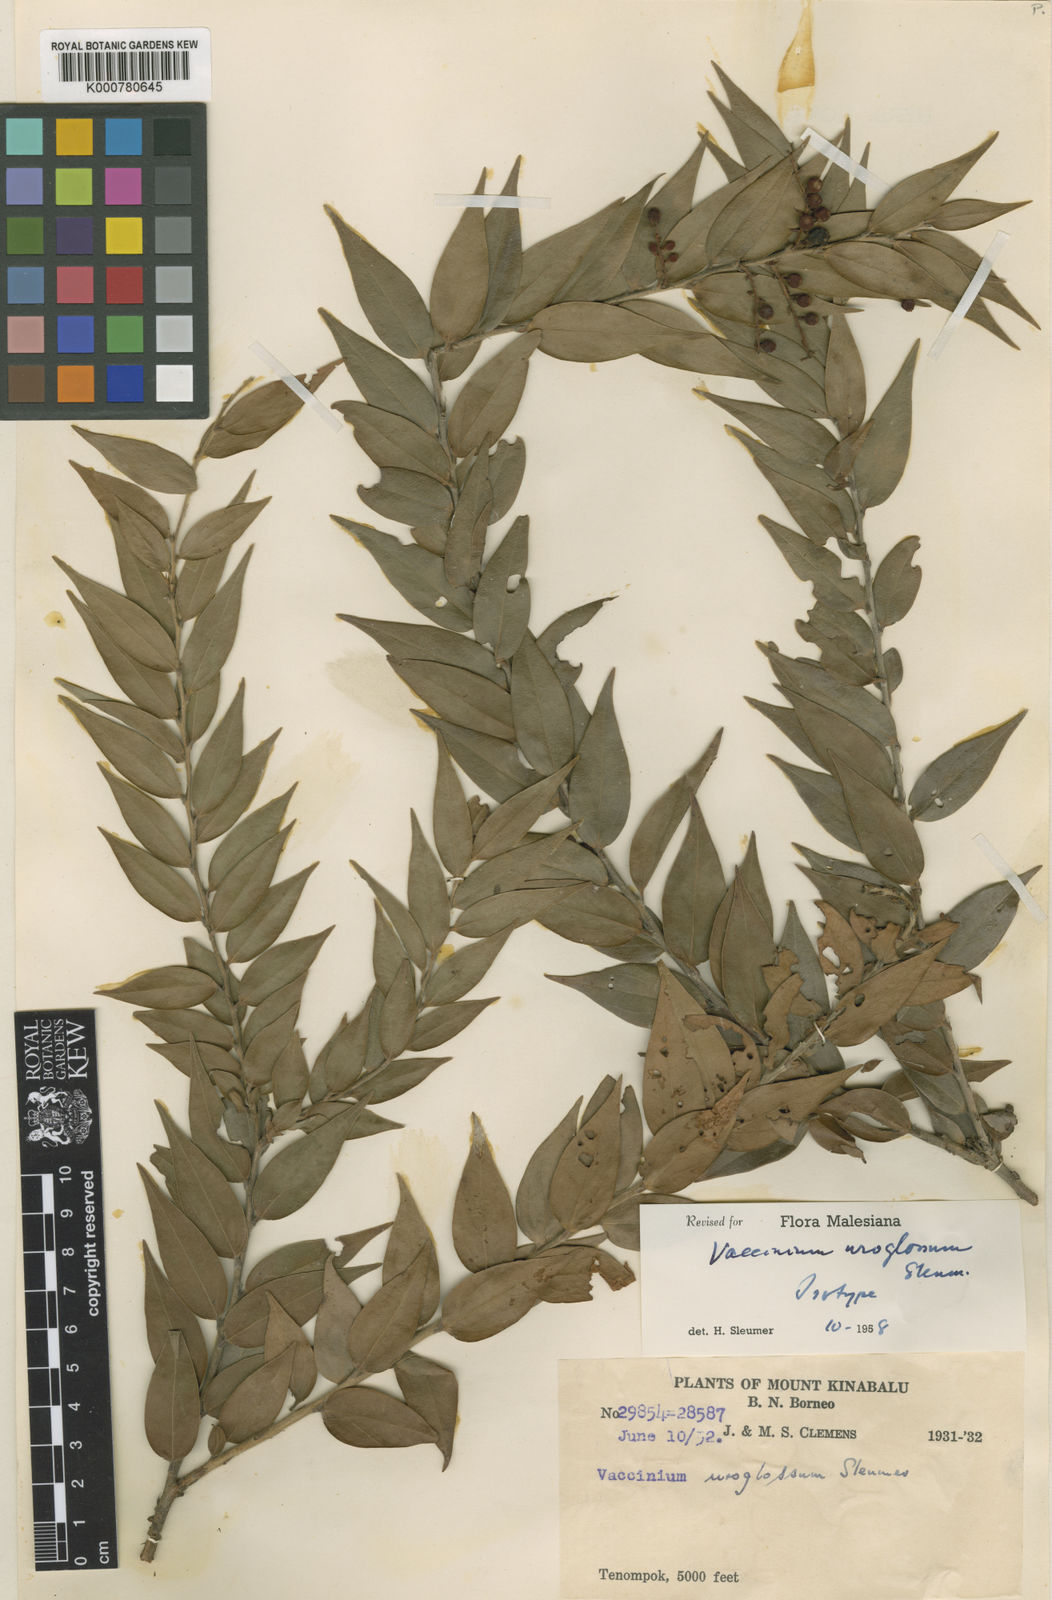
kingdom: Plantae
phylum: Tracheophyta
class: Magnoliopsida
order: Ericales
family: Ericaceae
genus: Rigiolepis
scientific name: Rigiolepis uroglossa
